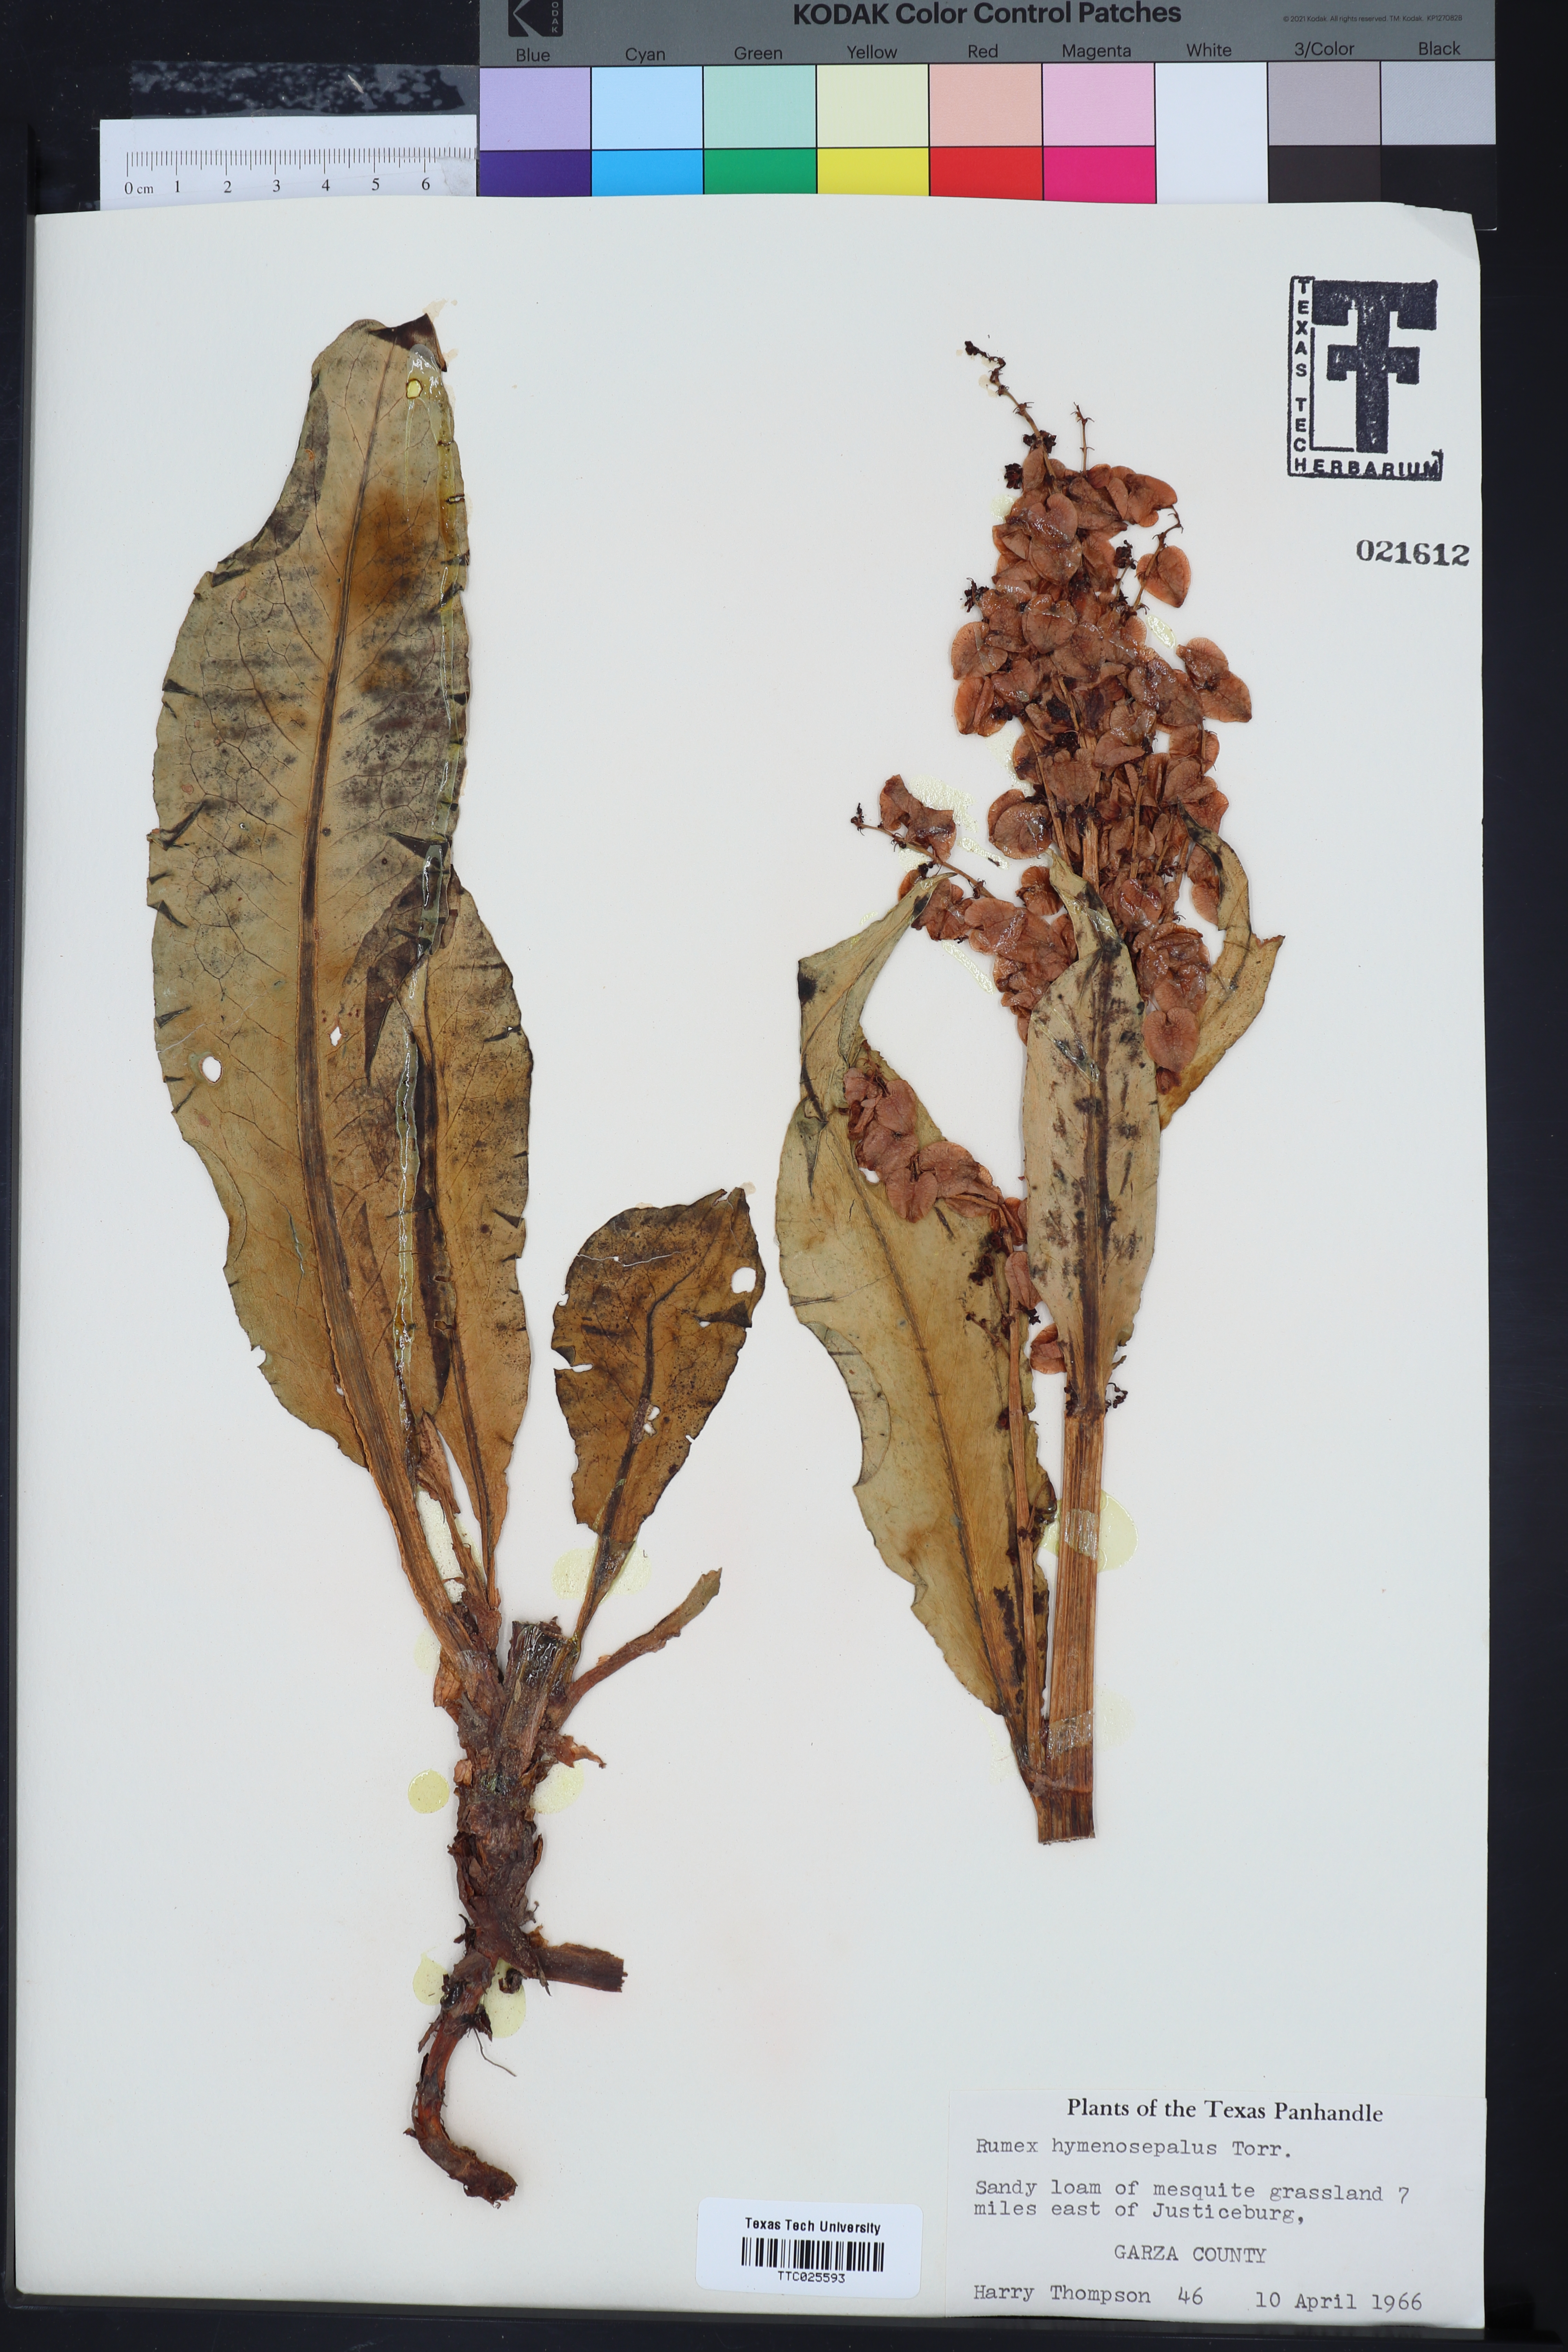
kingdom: Plantae
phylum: Tracheophyta
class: Magnoliopsida
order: Caryophyllales
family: Polygonaceae
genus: Rumex
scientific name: Rumex hymenosepalus
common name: Ganagra
